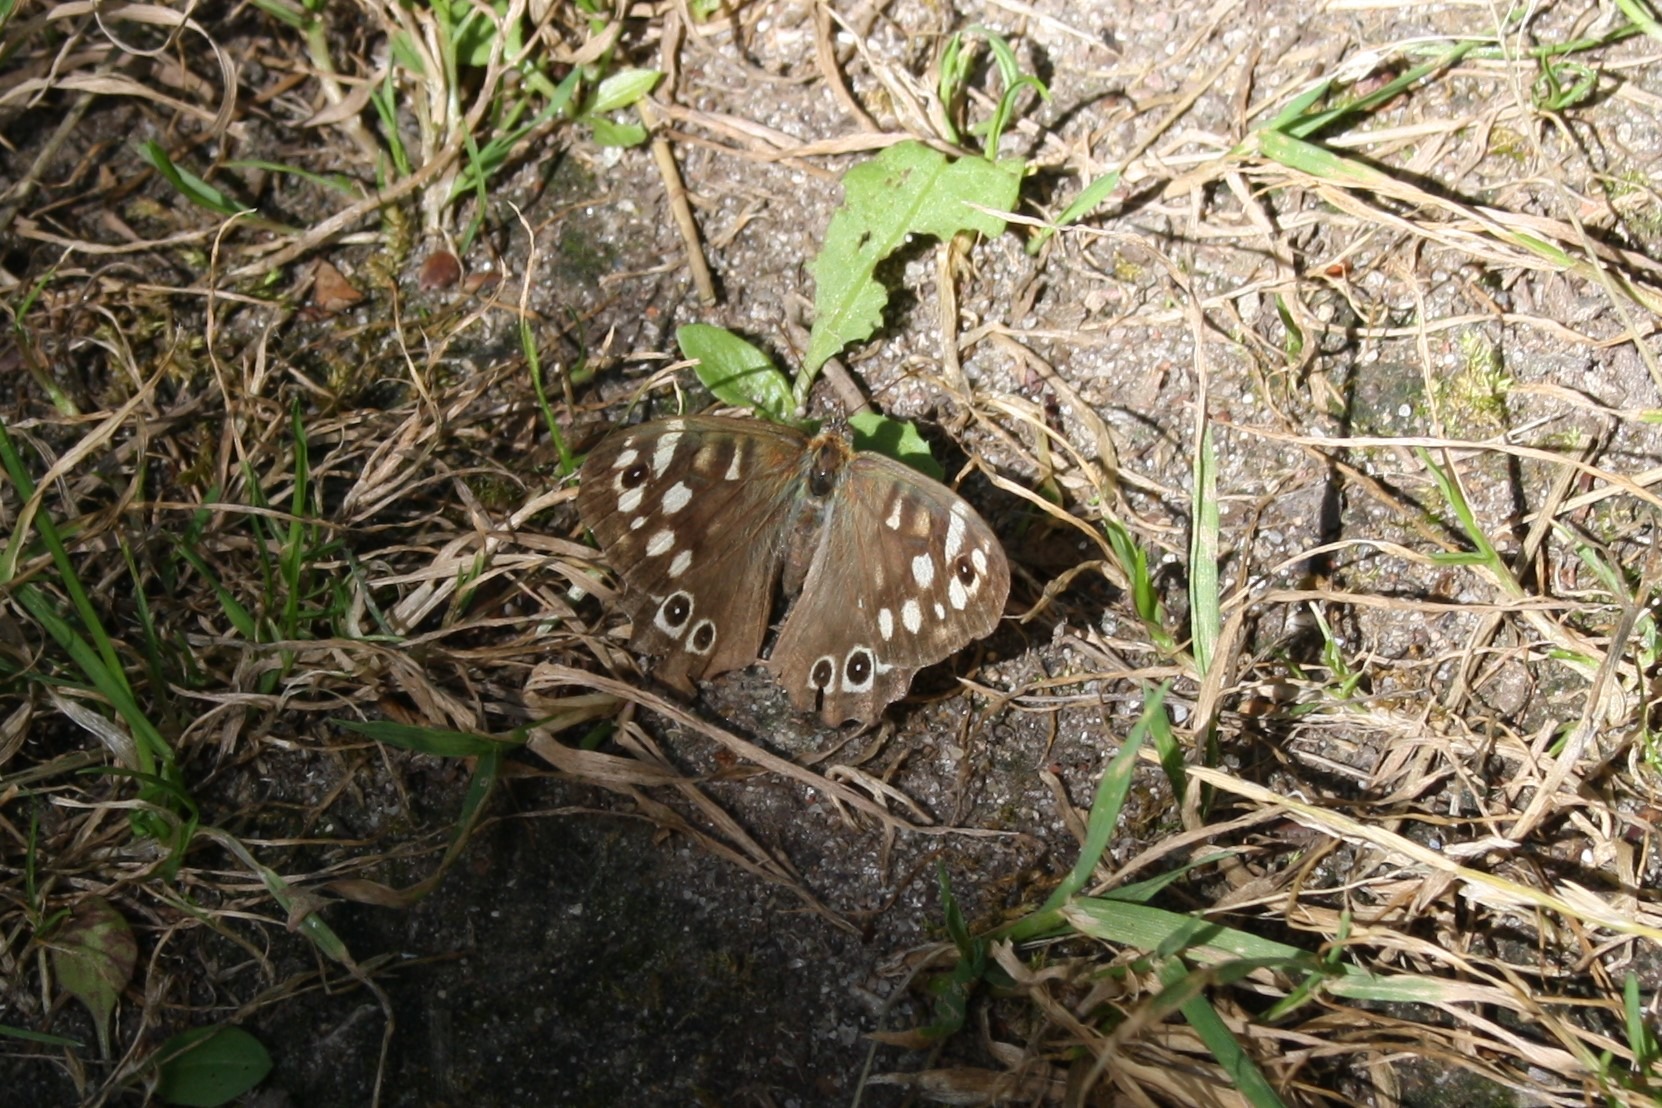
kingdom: Animalia
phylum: Arthropoda
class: Insecta
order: Lepidoptera
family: Nymphalidae
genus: Pararge
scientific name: Pararge aegeria
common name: Skovrandøje
